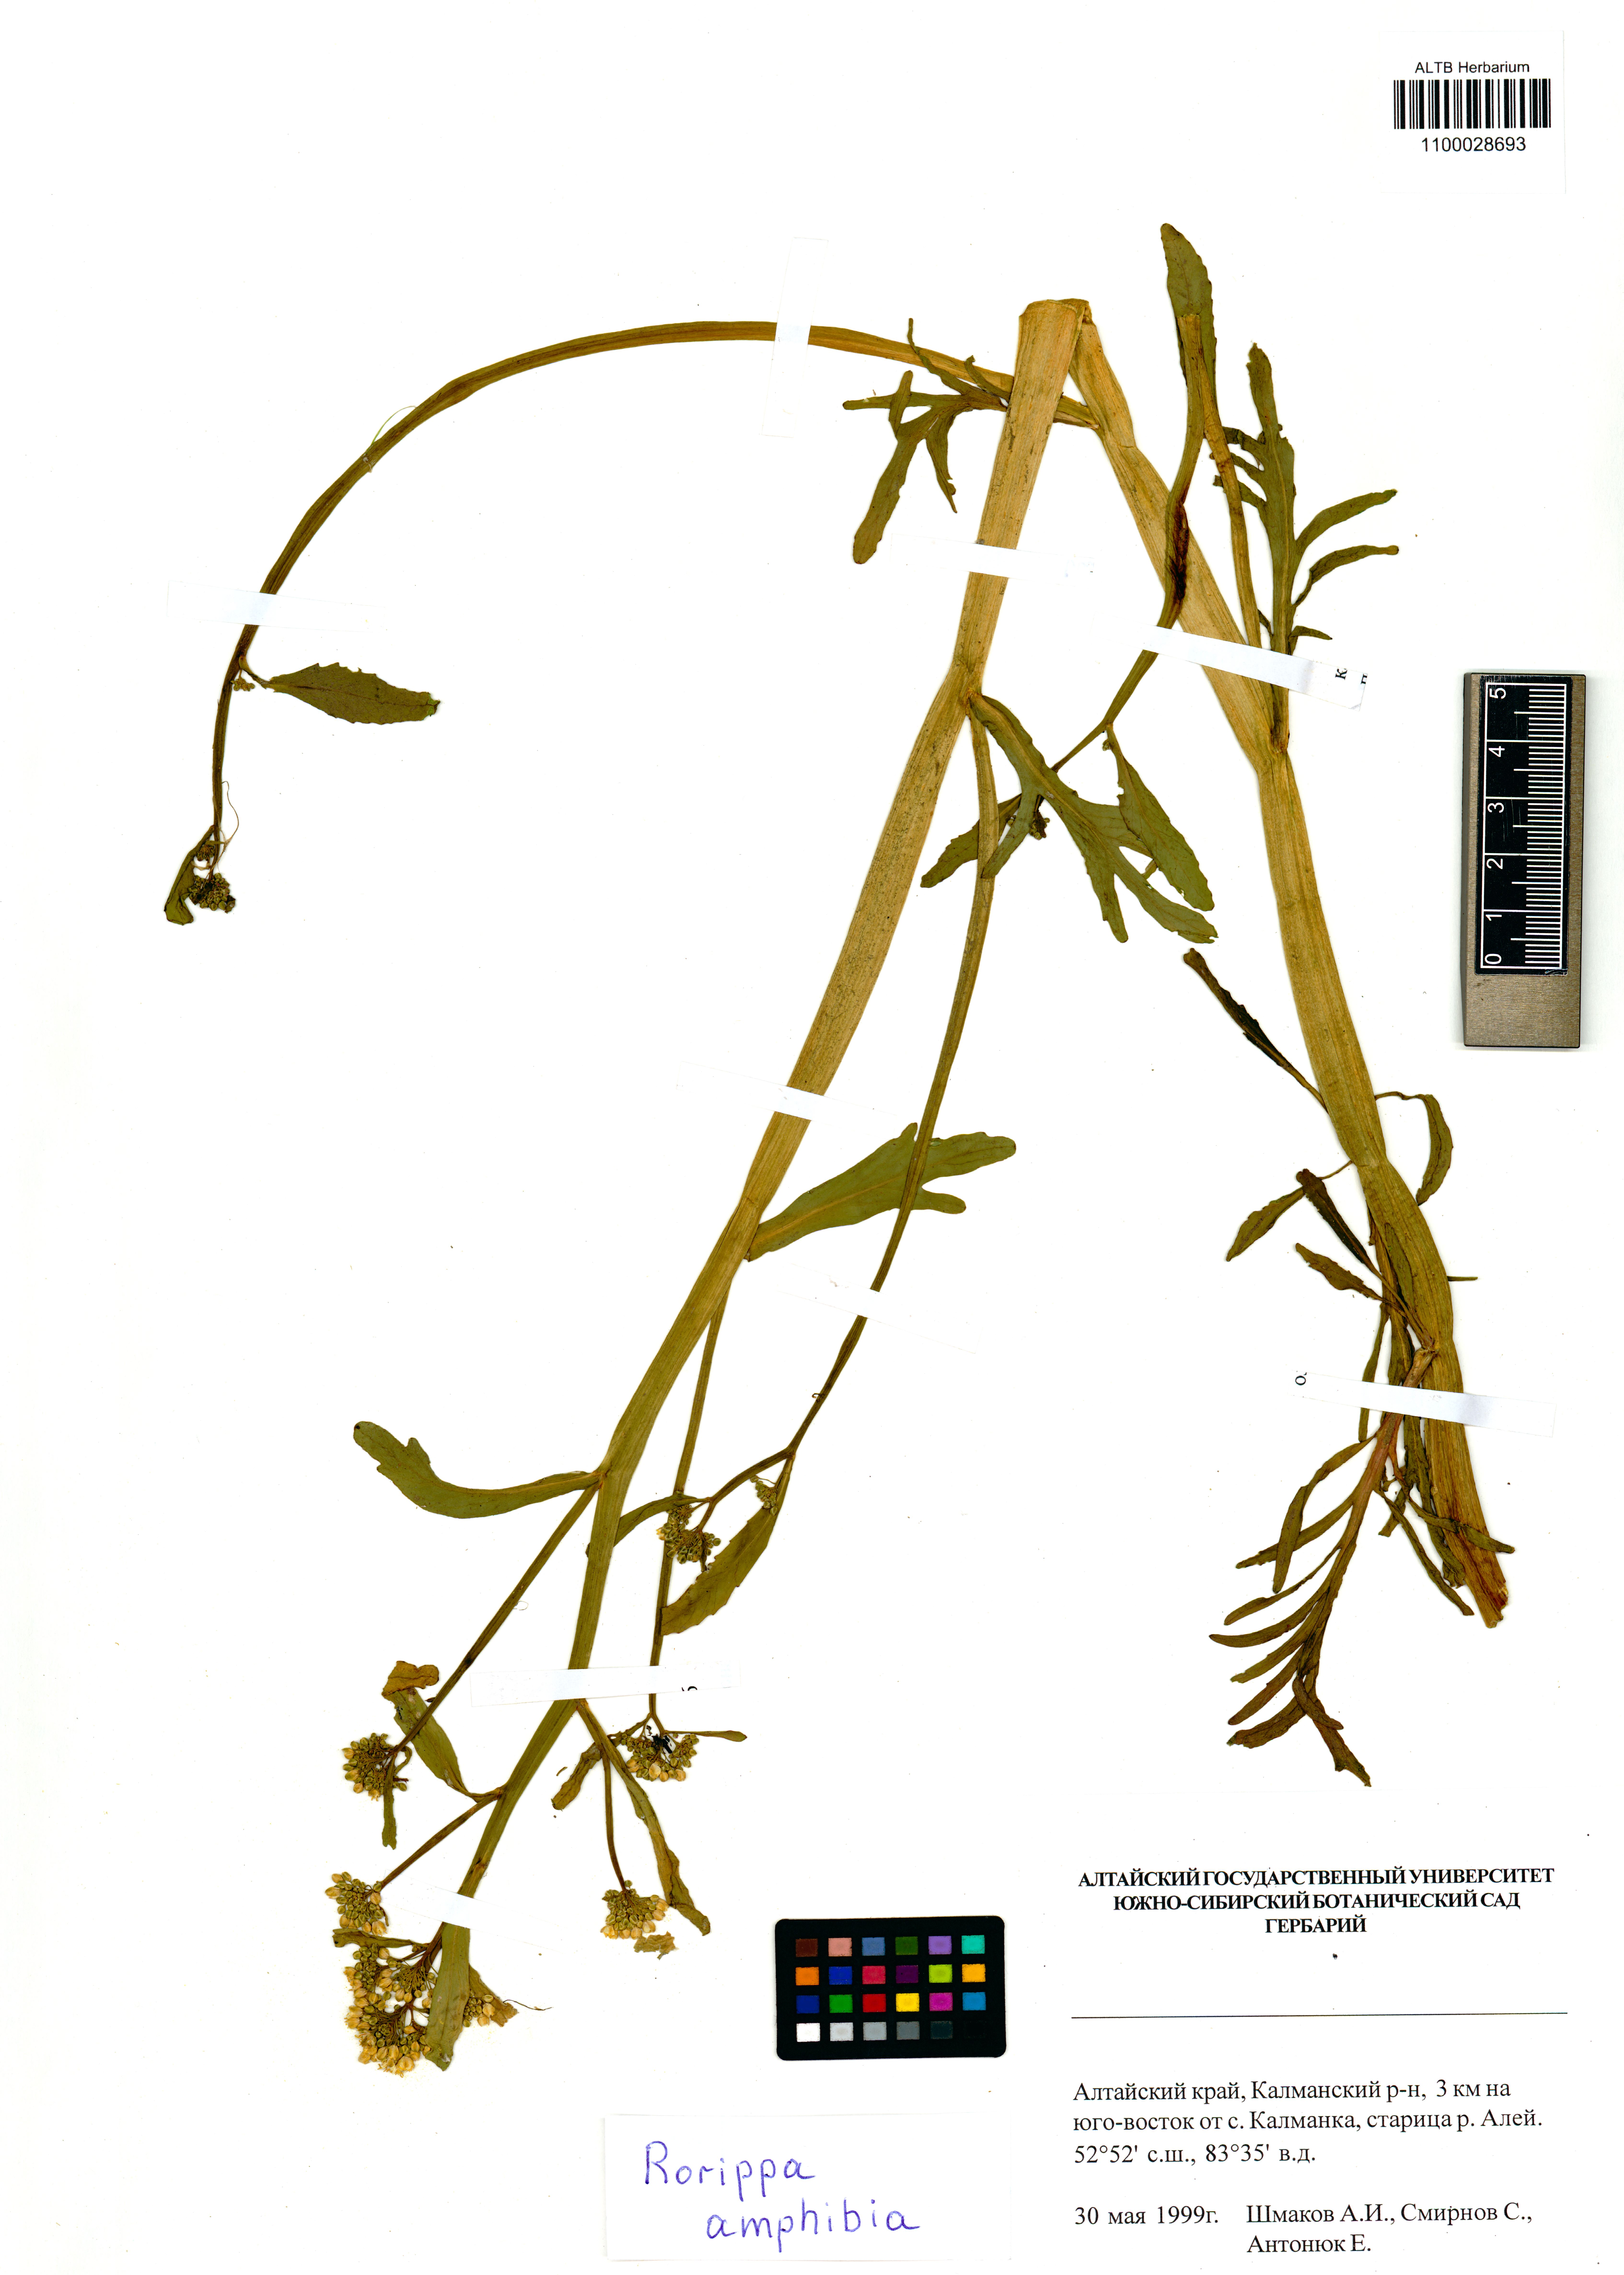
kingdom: Plantae
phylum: Tracheophyta
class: Magnoliopsida
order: Brassicales
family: Brassicaceae
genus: Rorippa
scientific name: Rorippa amphibia
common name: Great yellow-cress
